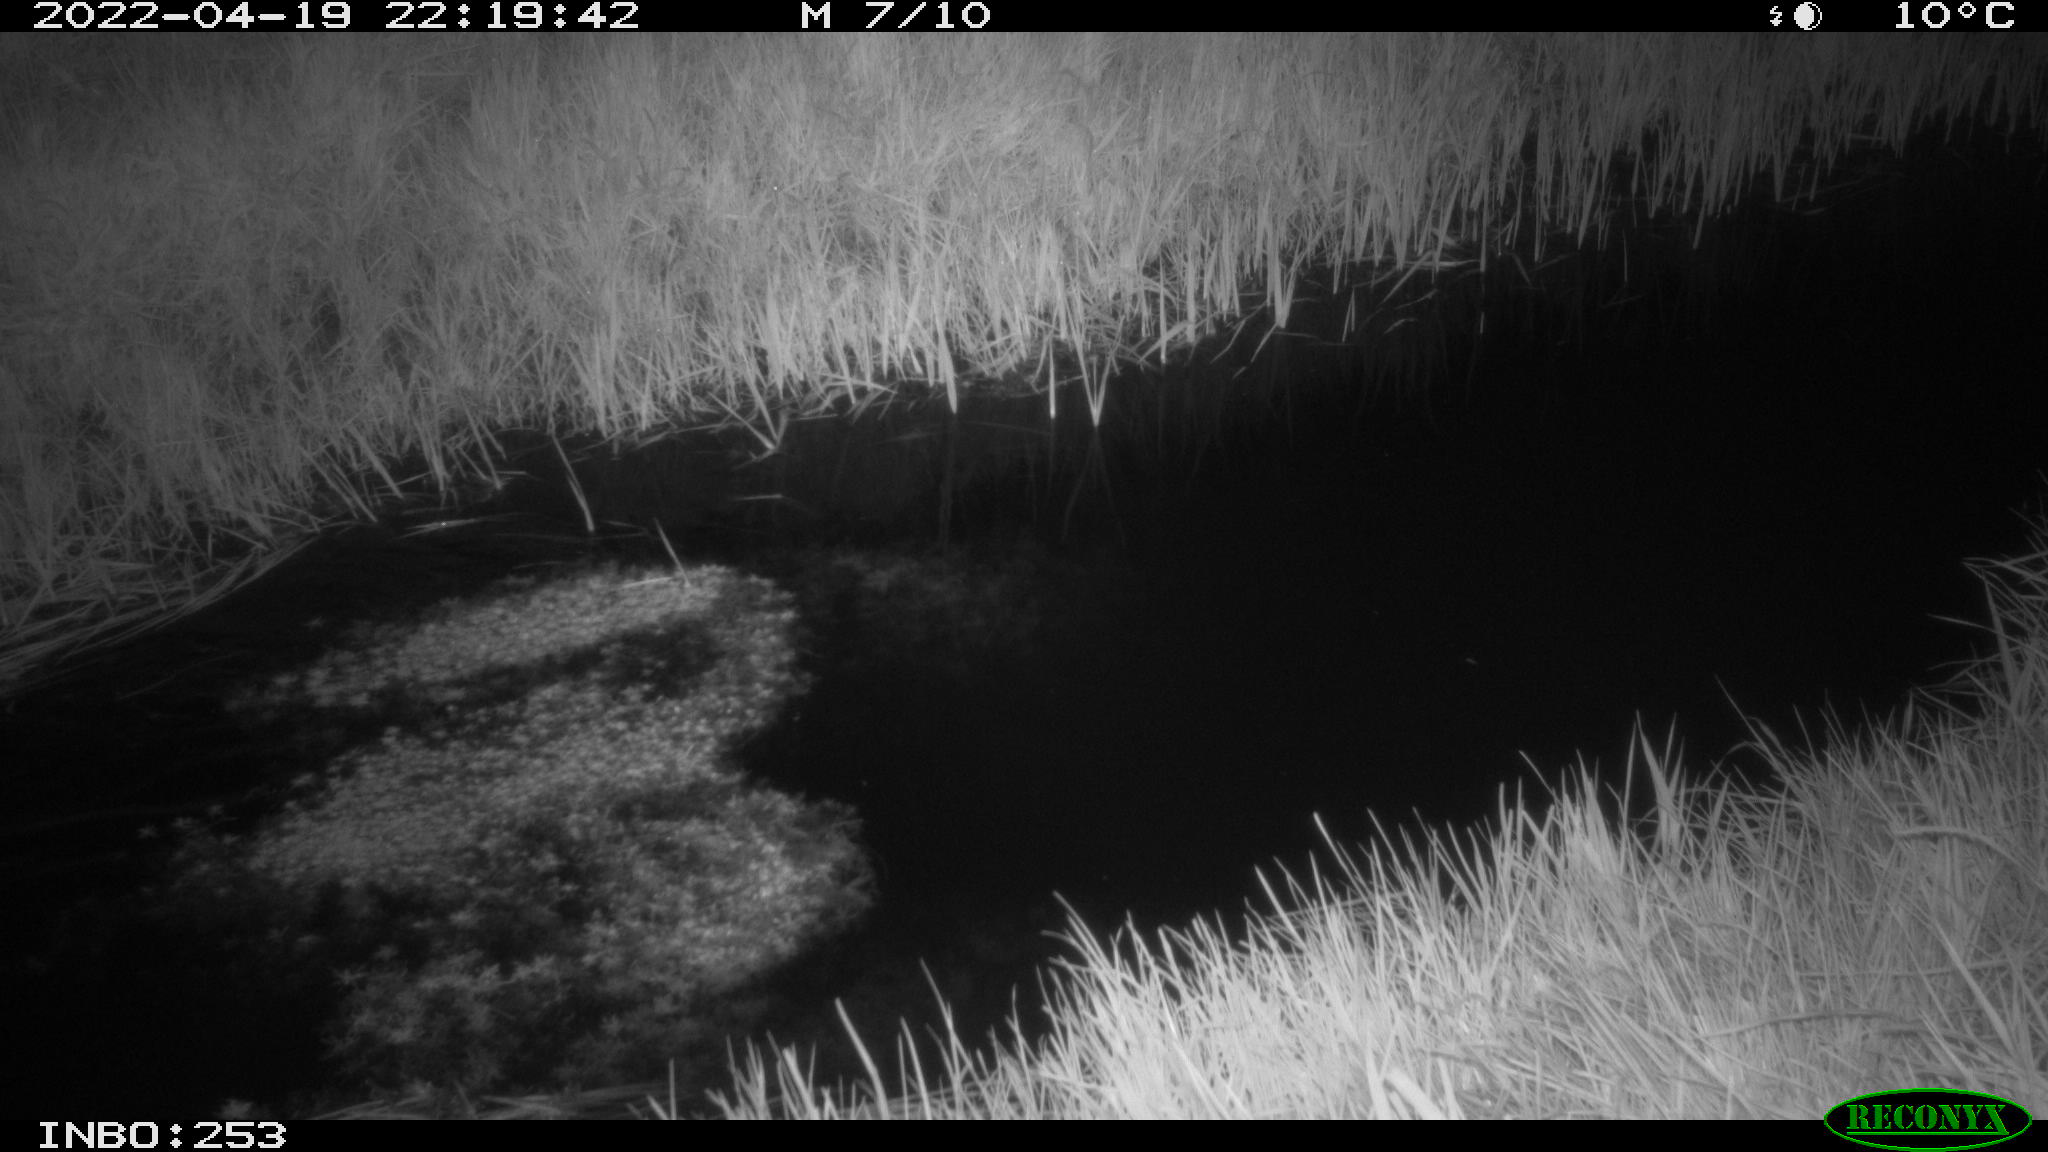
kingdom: Animalia
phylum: Chordata
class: Aves
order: Anseriformes
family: Anatidae
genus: Anas
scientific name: Anas platyrhynchos
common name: Mallard
